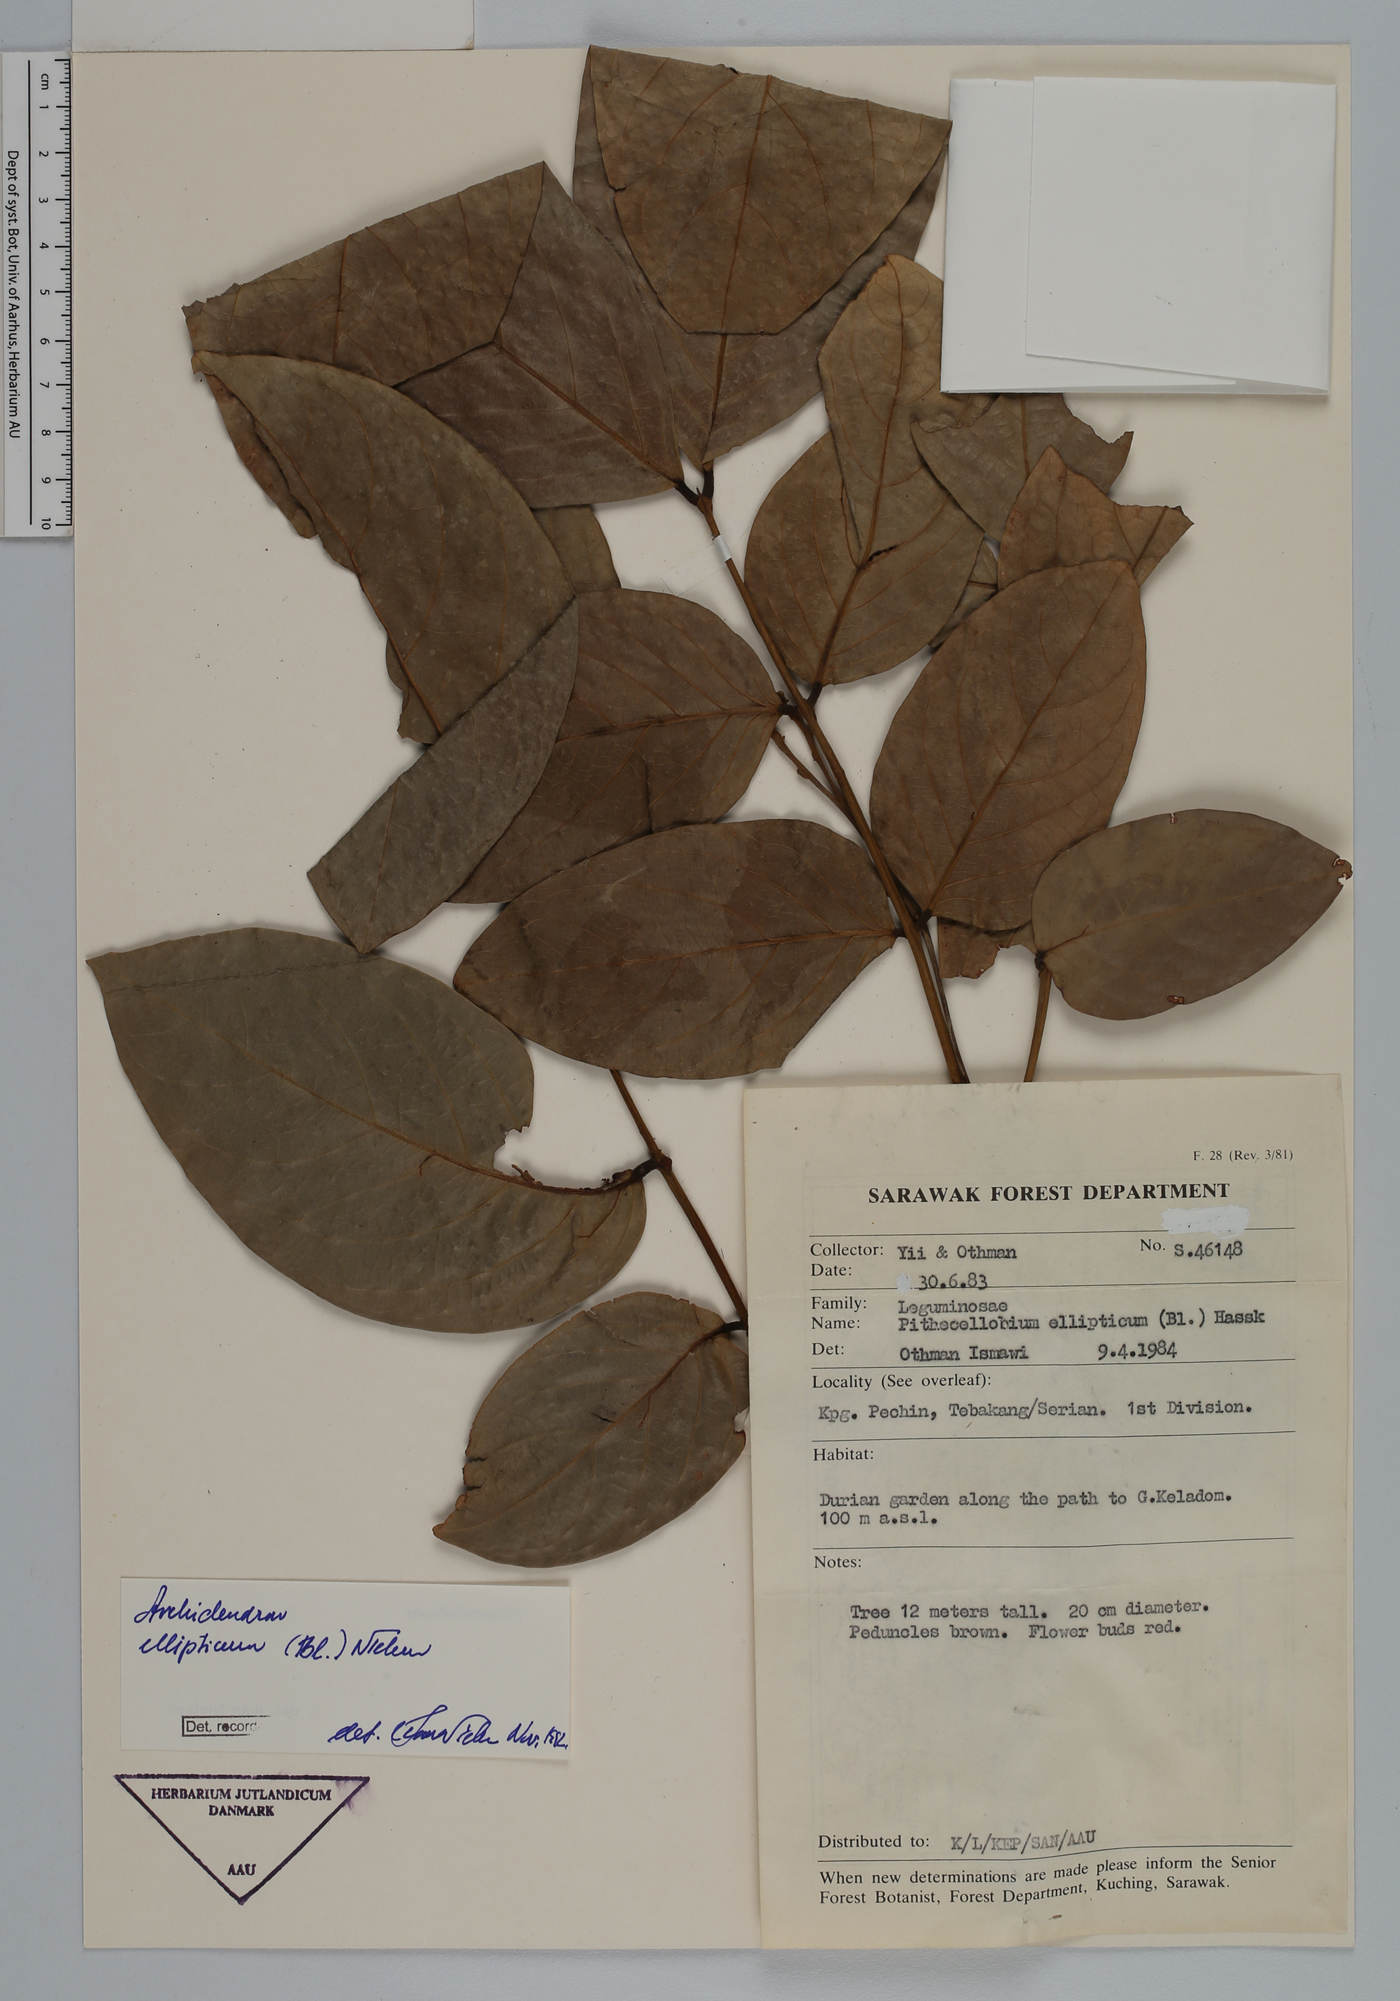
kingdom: Plantae
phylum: Tracheophyta
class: Magnoliopsida
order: Fabales
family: Fabaceae
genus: Archidendron
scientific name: Archidendron ellipticum
